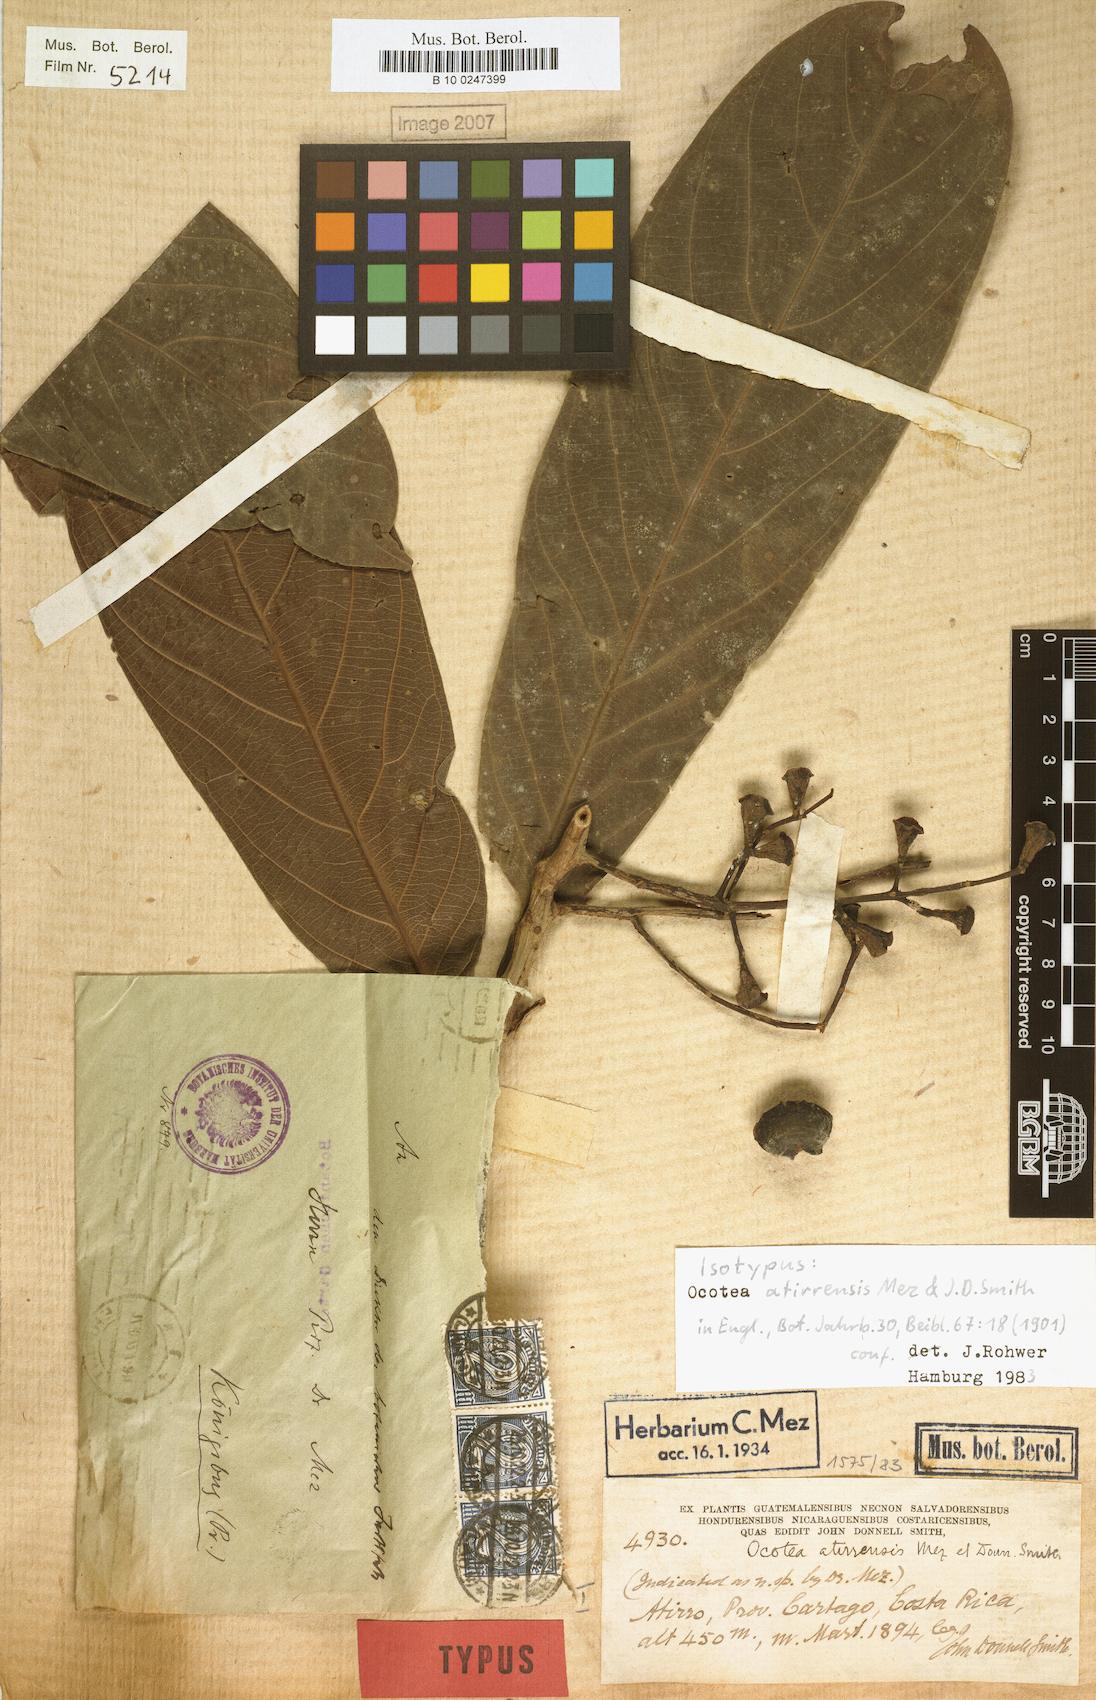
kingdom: Plantae
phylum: Tracheophyta
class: Magnoliopsida
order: Laurales
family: Lauraceae
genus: Ocotea
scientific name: Ocotea atirrensis
